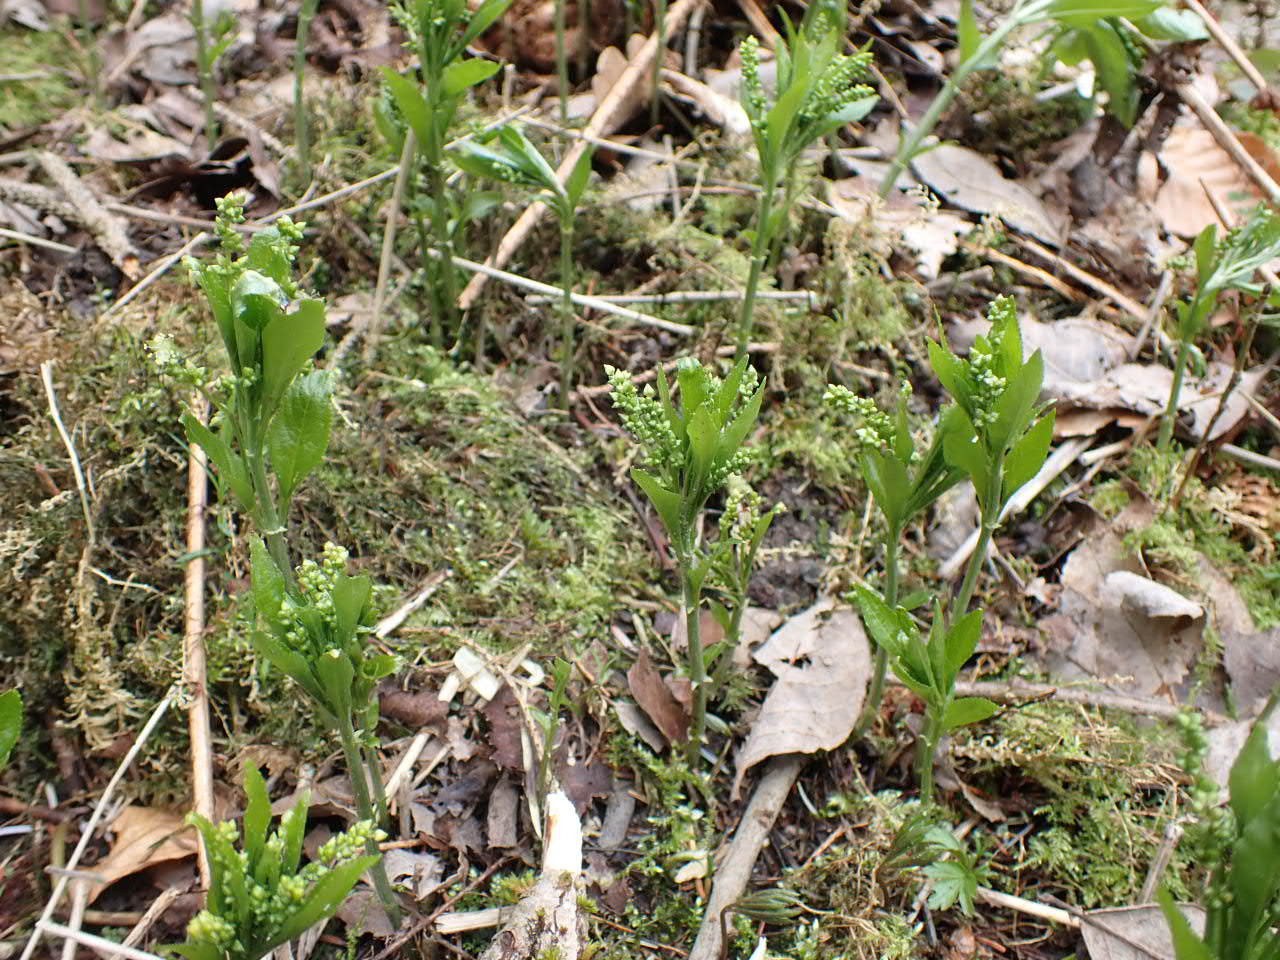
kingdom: Plantae
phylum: Tracheophyta
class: Magnoliopsida
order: Malpighiales
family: Euphorbiaceae
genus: Mercurialis
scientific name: Mercurialis perennis
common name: Almindelig bingelurt
